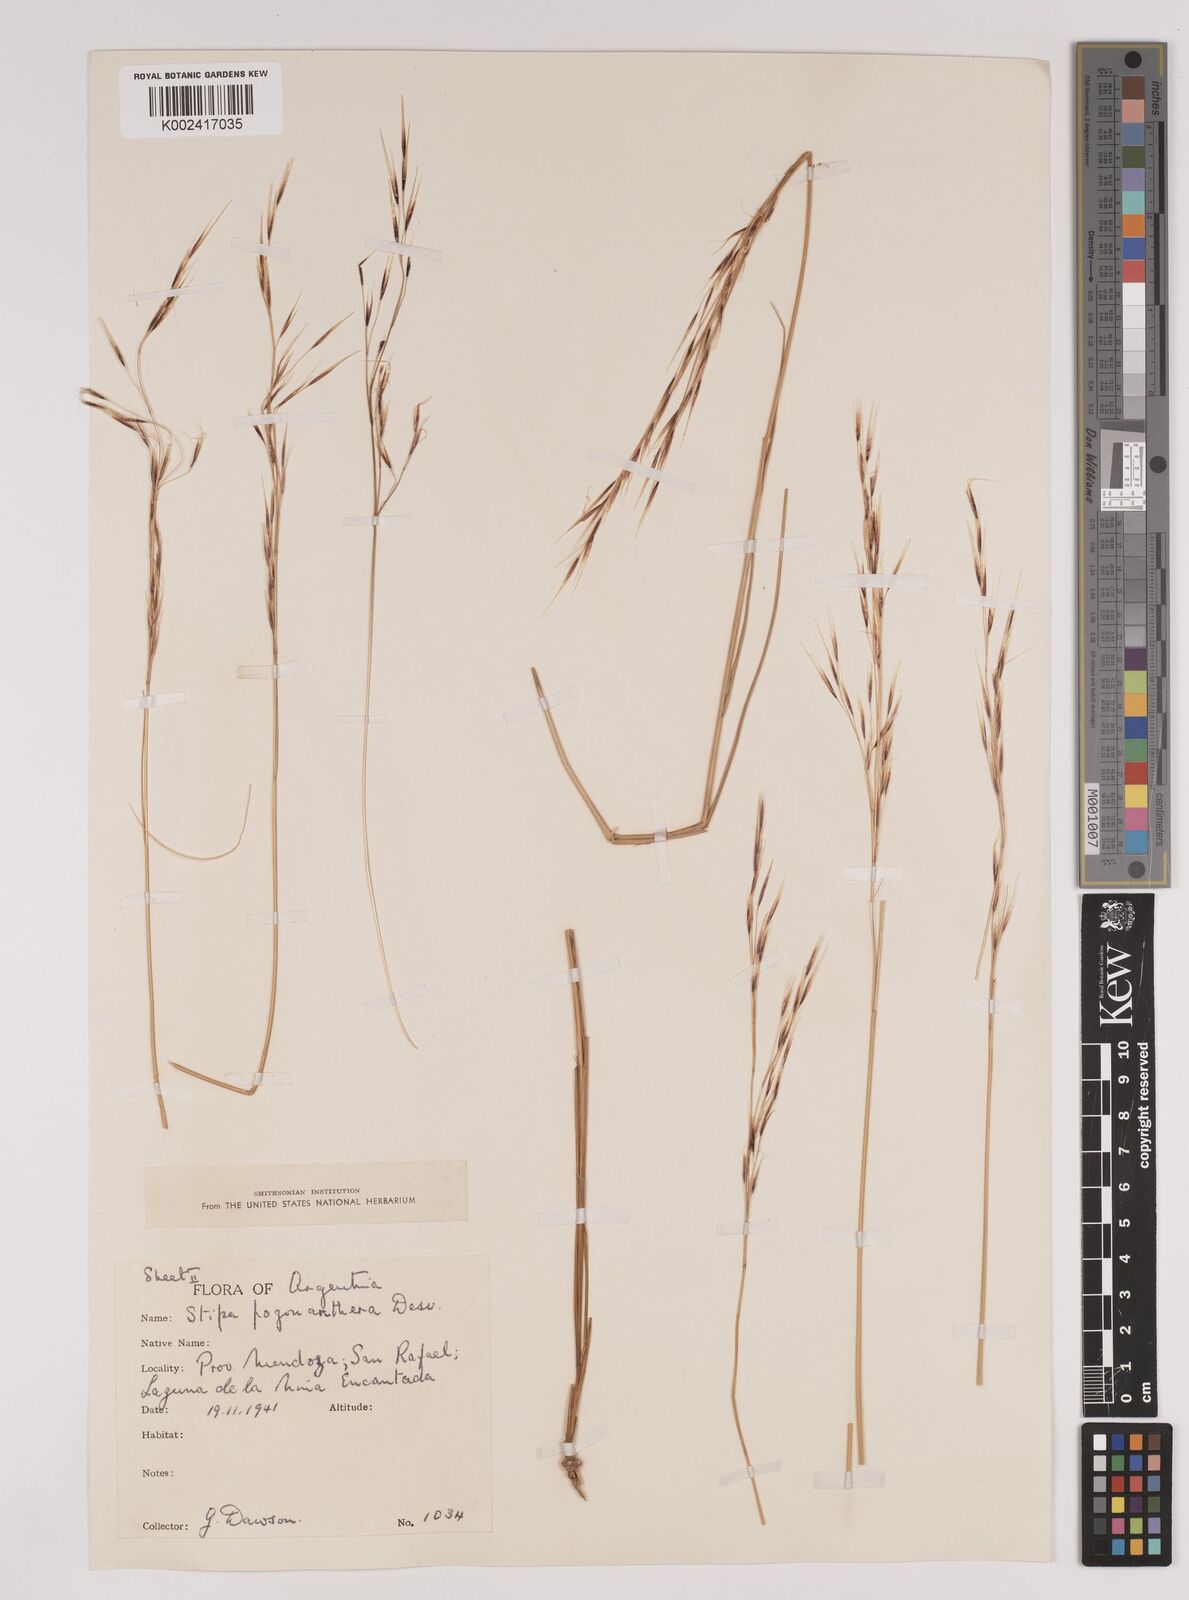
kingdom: Plantae
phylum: Tracheophyta
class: Liliopsida
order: Poales
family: Poaceae
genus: Stipa
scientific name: Stipa pogonathera
